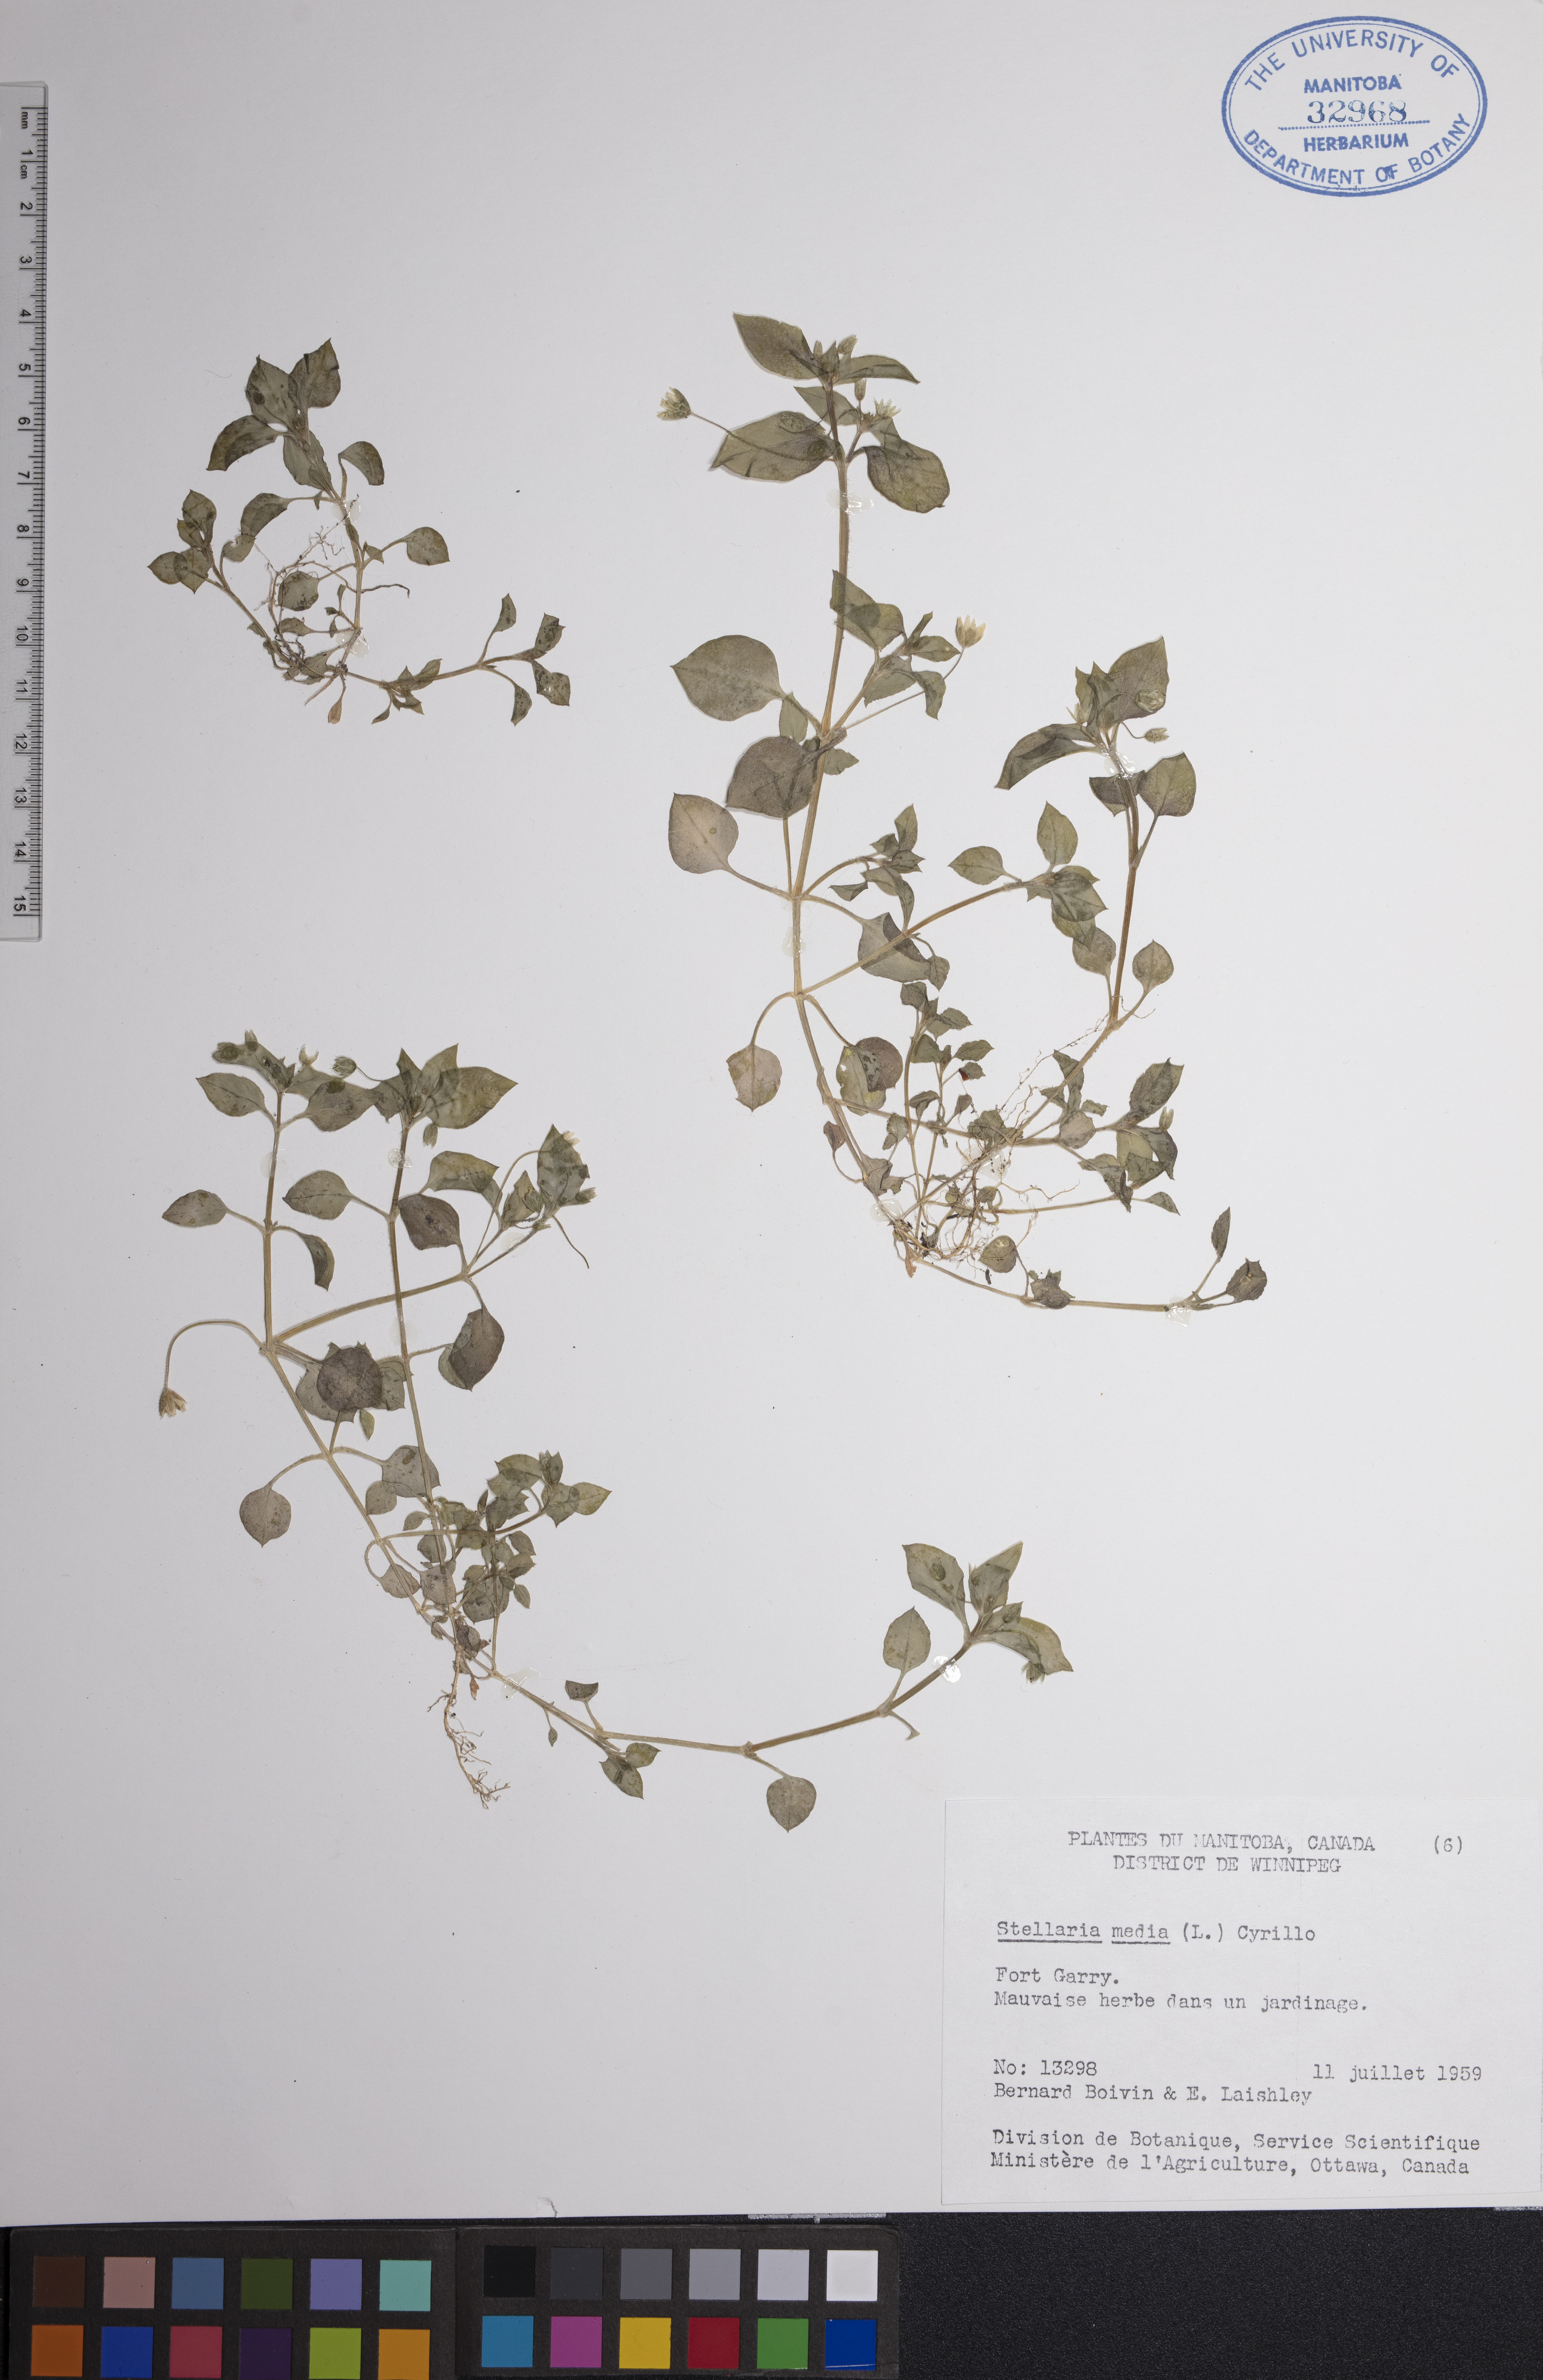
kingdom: Plantae
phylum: Tracheophyta
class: Magnoliopsida
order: Caryophyllales
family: Caryophyllaceae
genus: Stellaria
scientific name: Stellaria media
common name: Common chickweed
